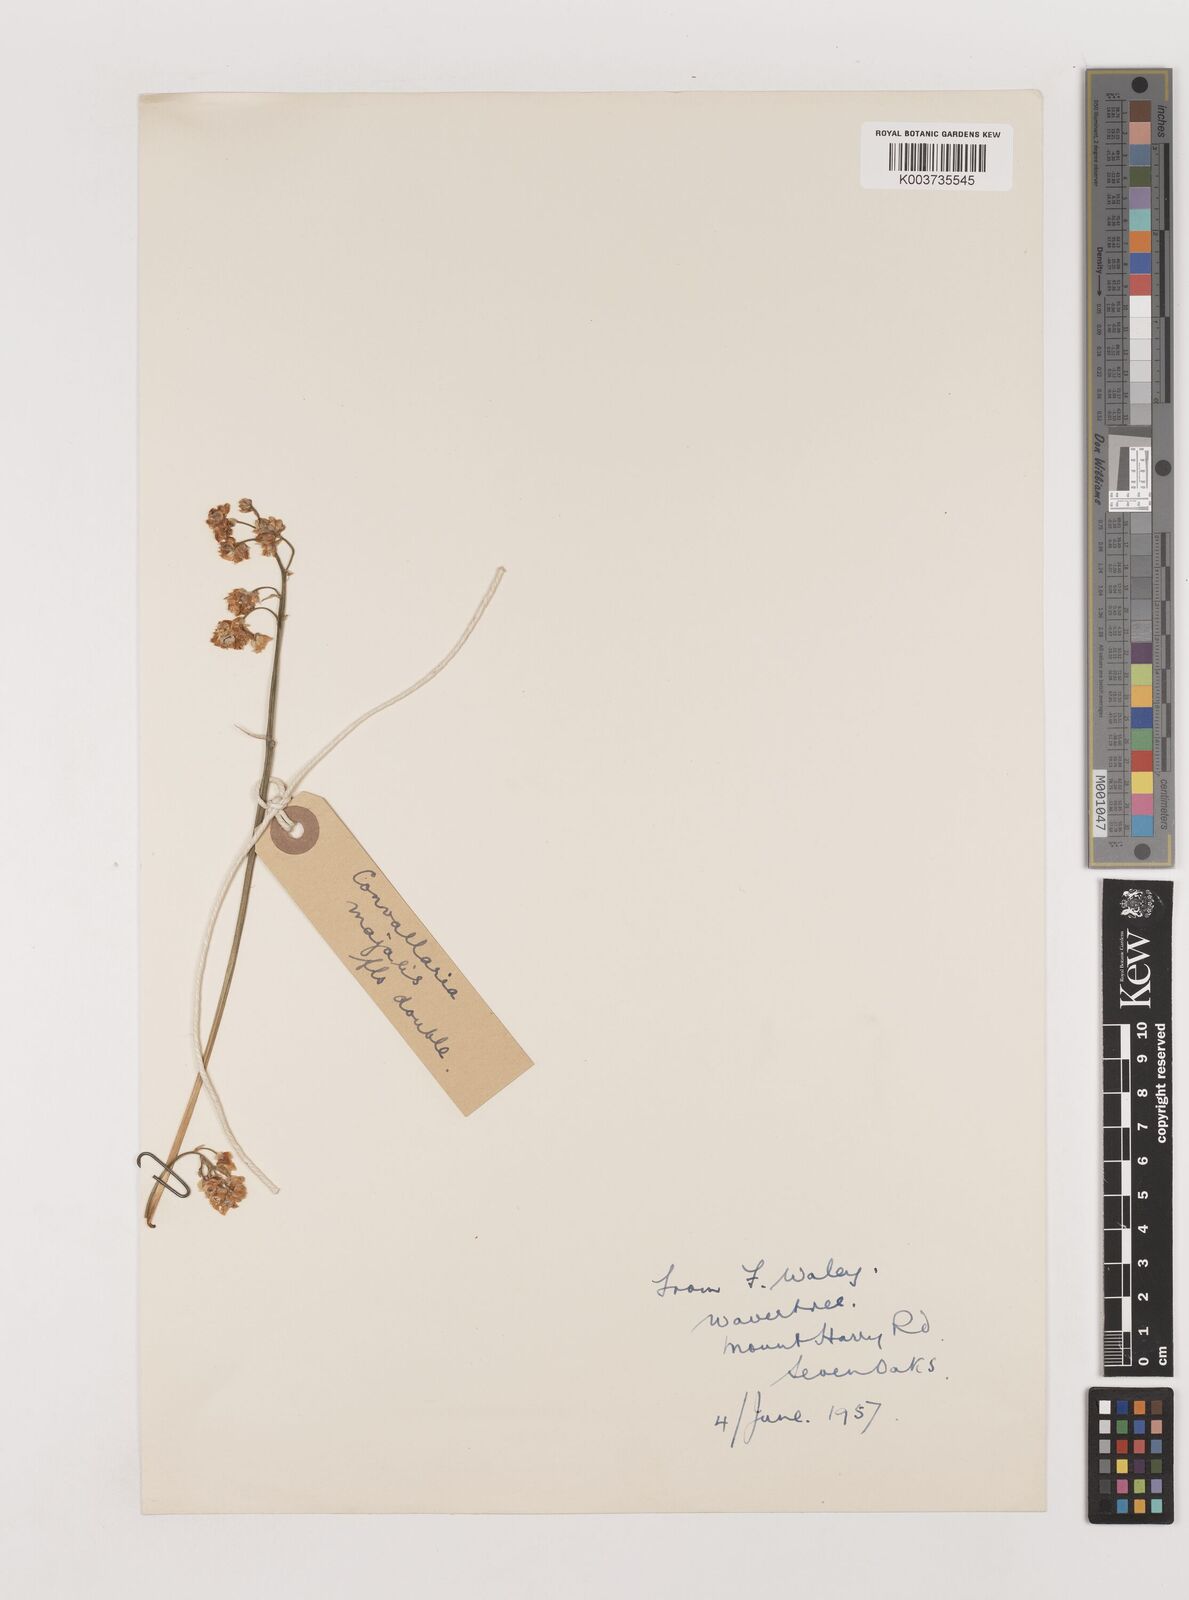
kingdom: Plantae
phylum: Tracheophyta
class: Liliopsida
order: Asparagales
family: Asparagaceae
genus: Convallaria
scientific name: Convallaria majalis
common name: Lily-of-the-valley
